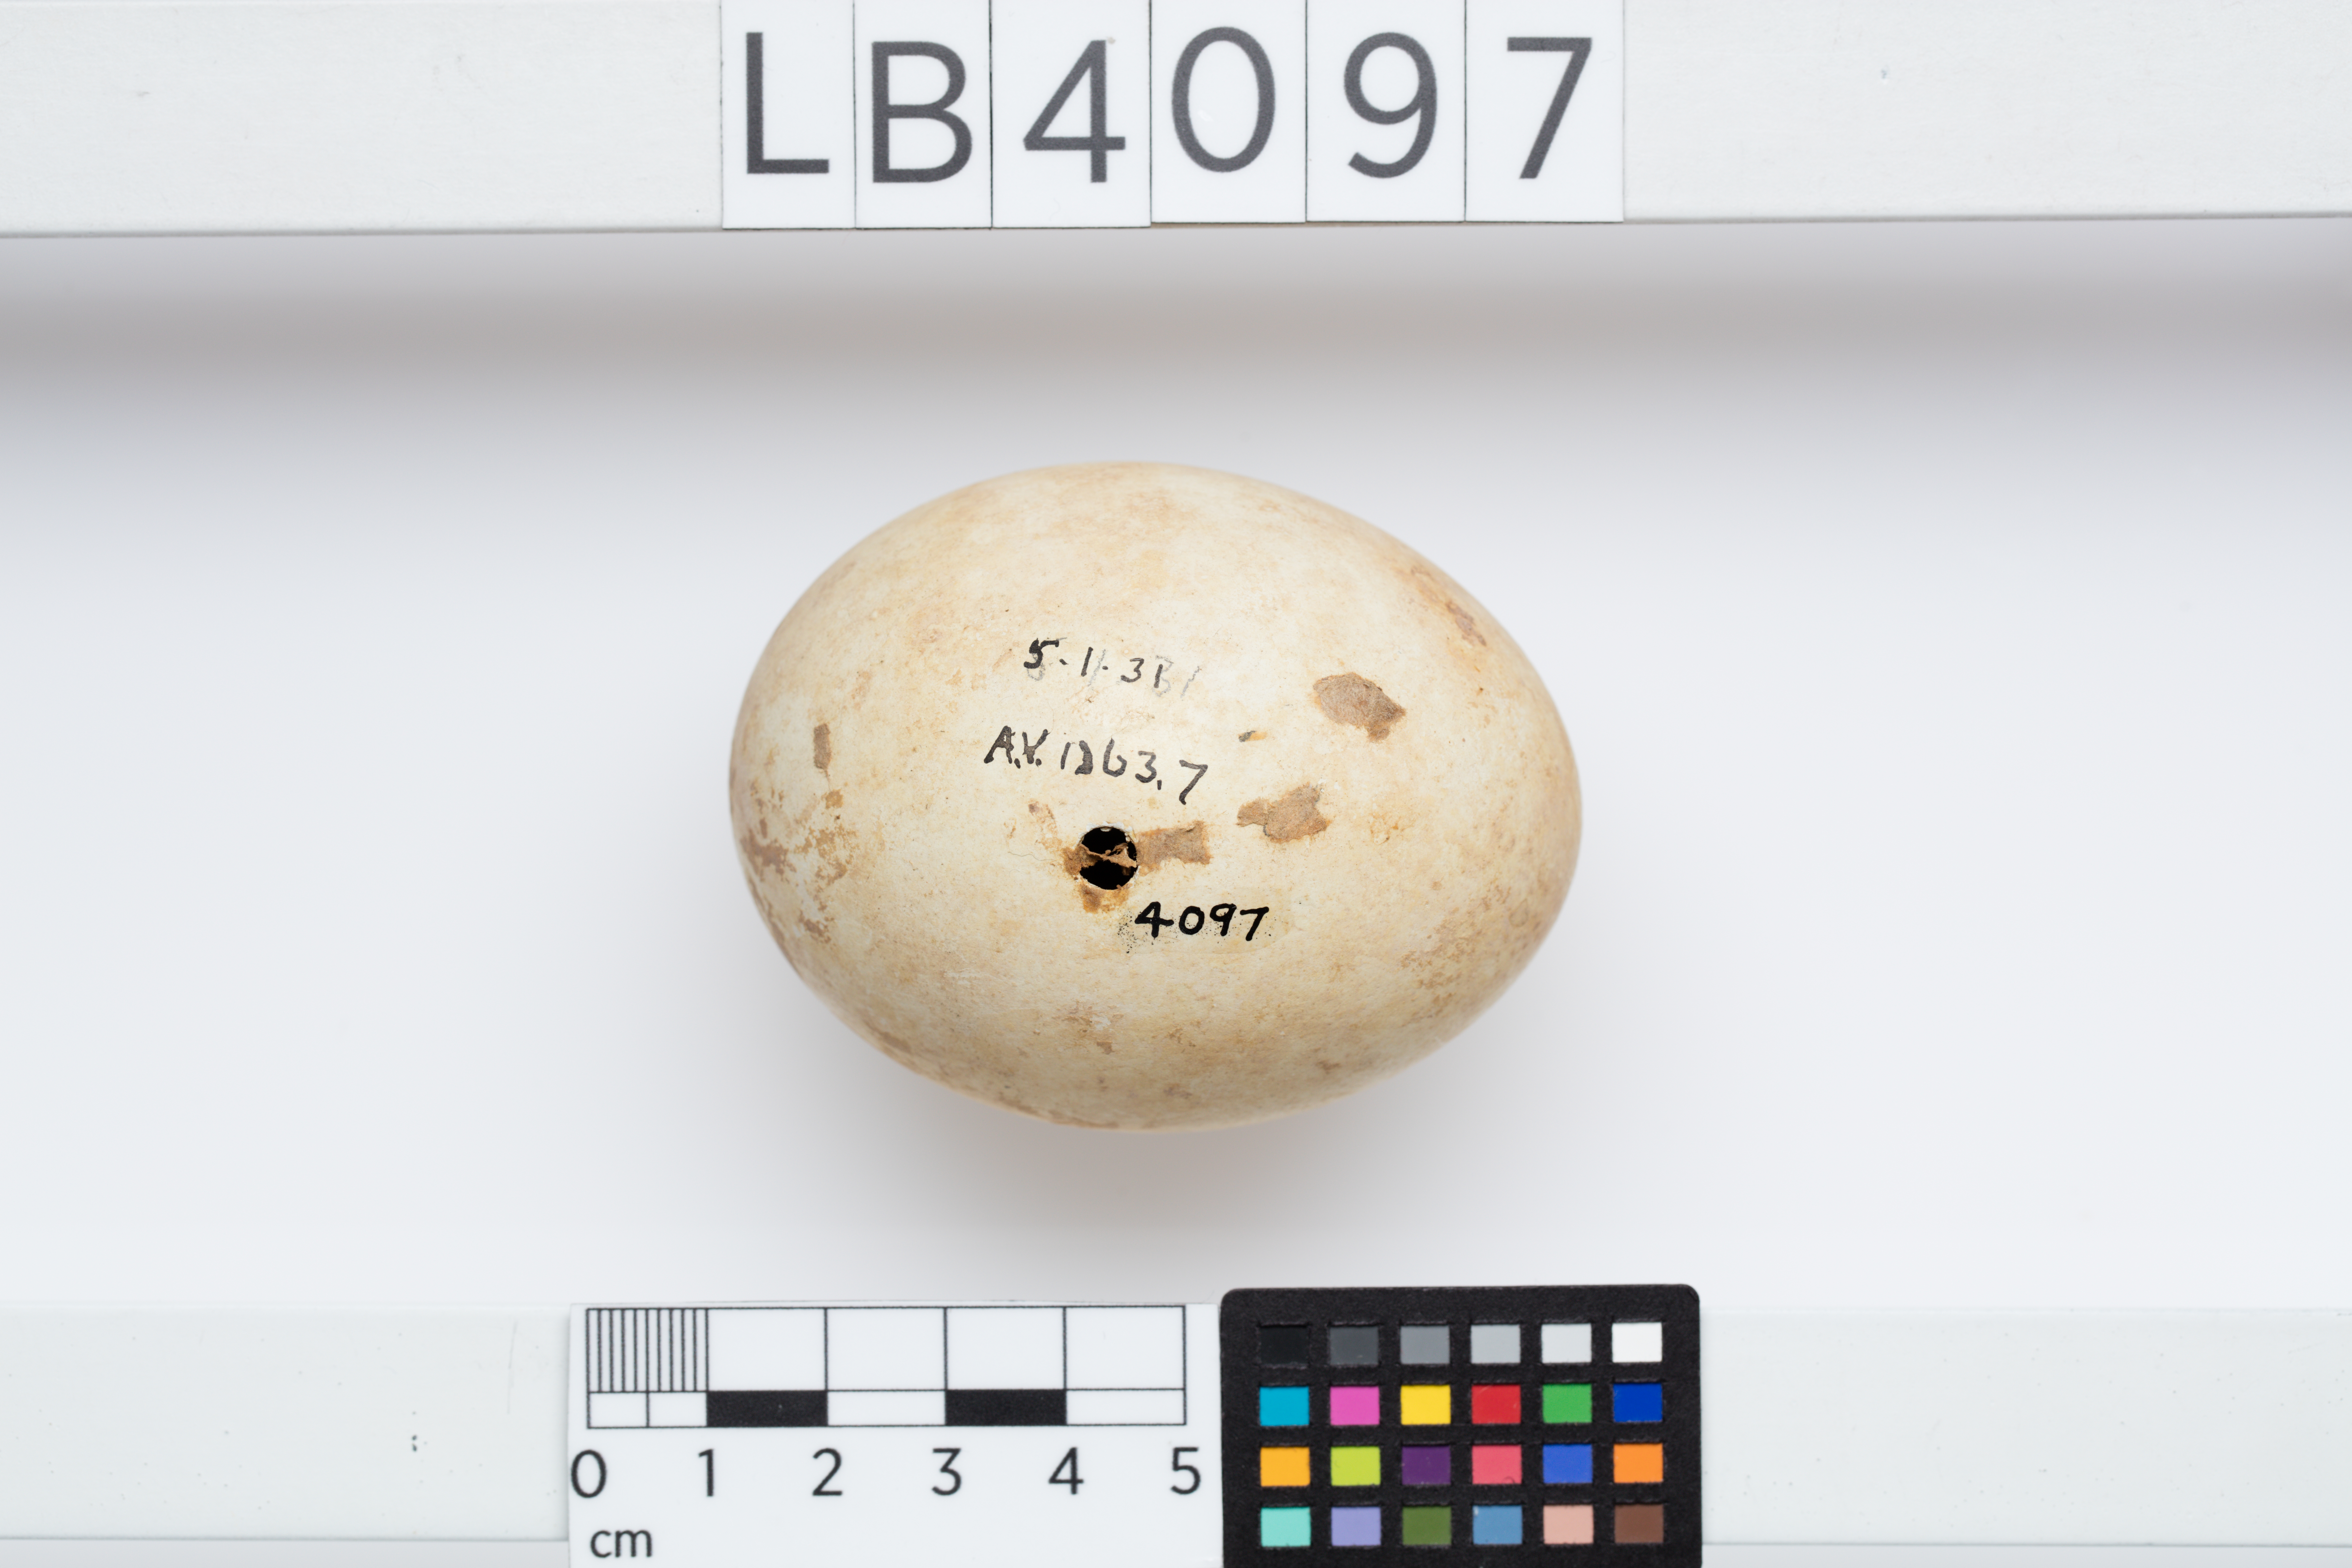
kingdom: Animalia
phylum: Chordata
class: Aves
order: Sphenisciformes
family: Spheniscidae
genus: Pygoscelis
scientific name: Pygoscelis adeliae
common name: Adelie penguin
